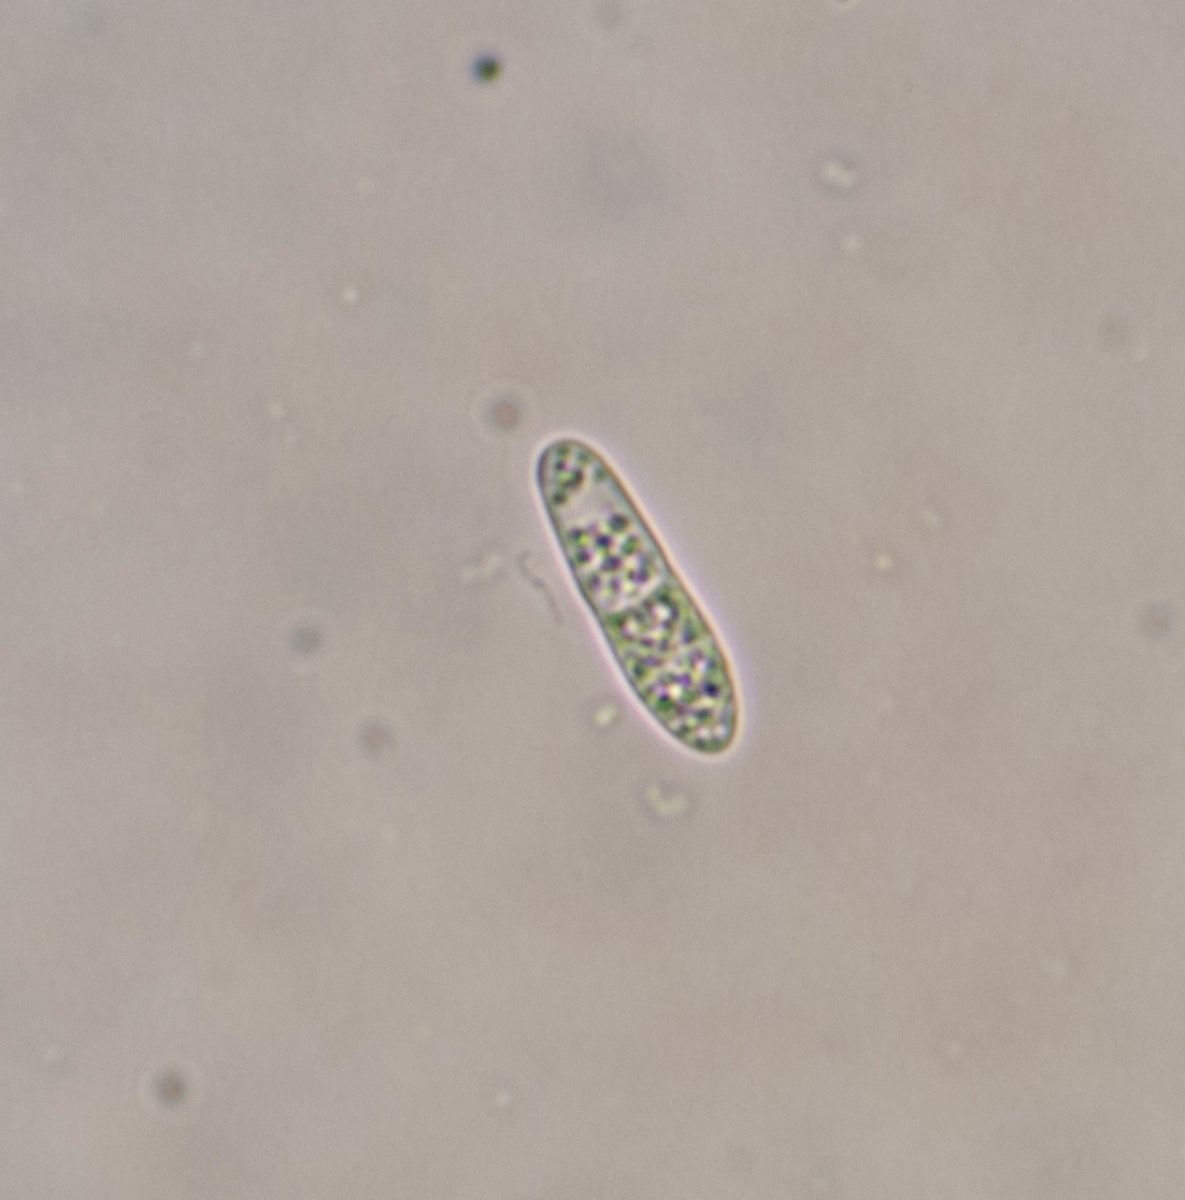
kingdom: Fungi
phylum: Ascomycota
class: Arthoniomycetes
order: Arthoniales
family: Arthoniaceae
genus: Arthonia
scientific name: Arthonia atra
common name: sort bogstavlav
